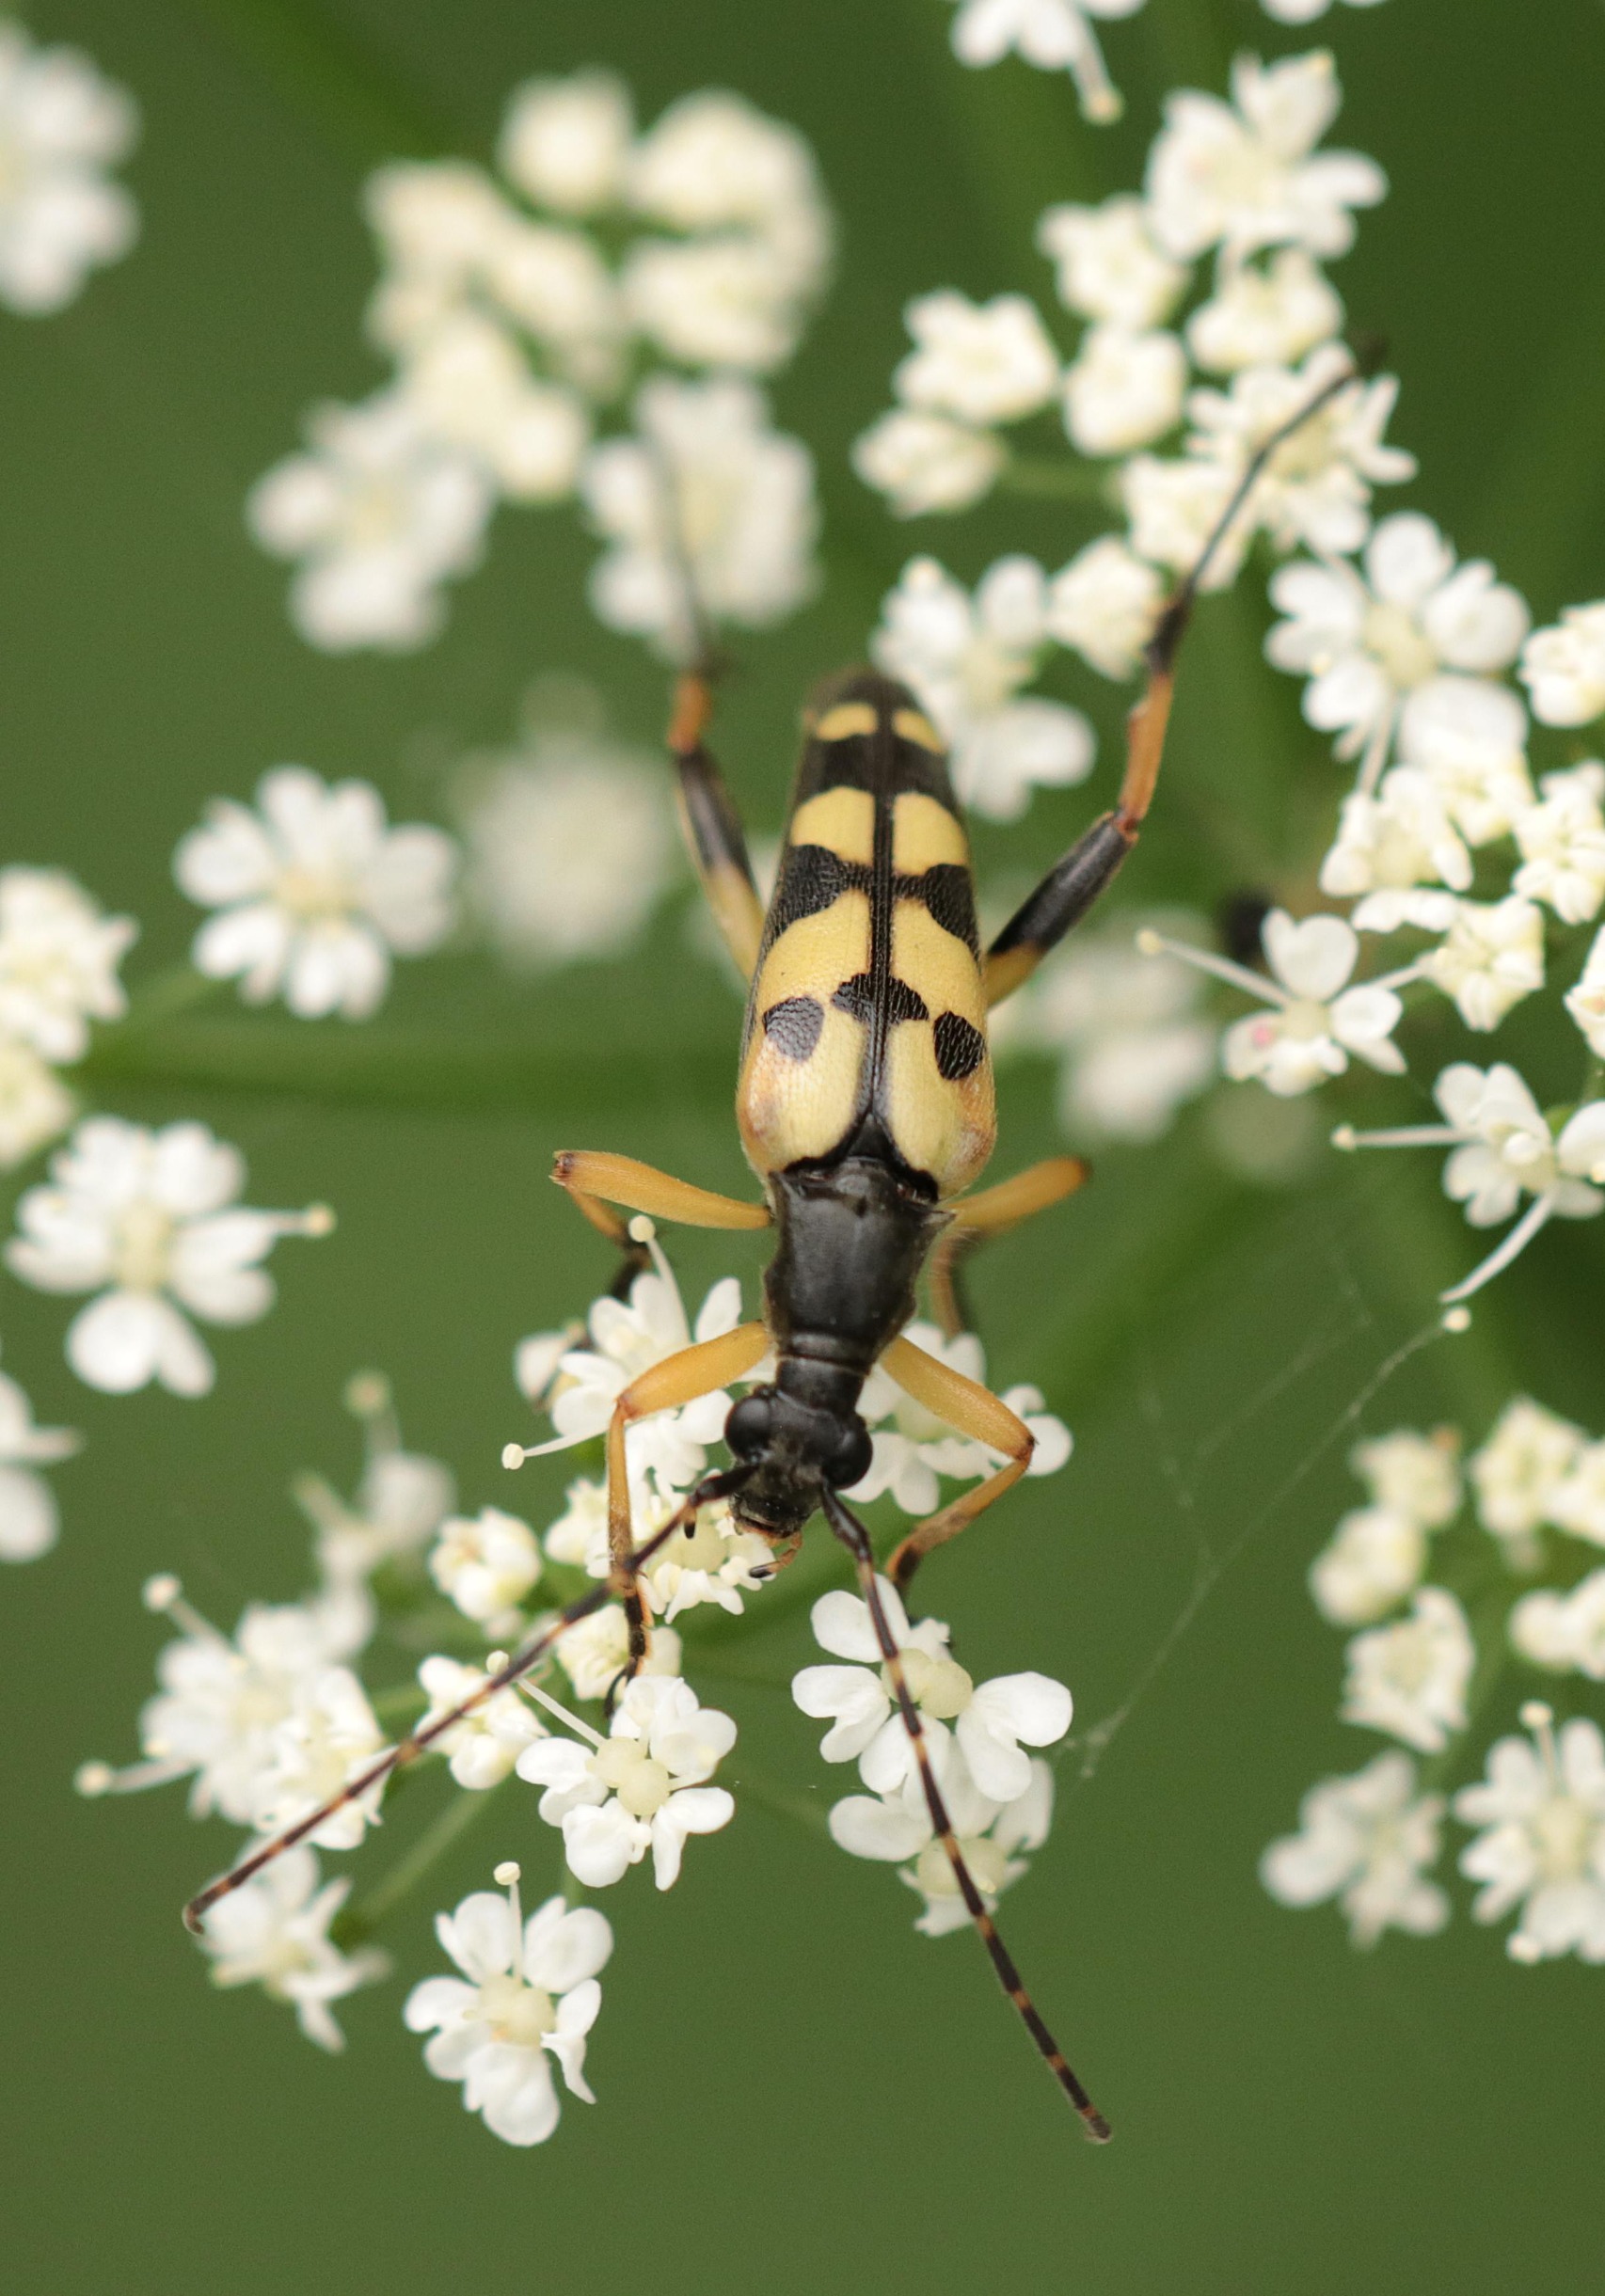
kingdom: Animalia
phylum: Arthropoda
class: Insecta
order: Coleoptera
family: Cerambycidae
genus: Rutpela
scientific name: Rutpela maculata
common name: Sydlig blomsterbuk
